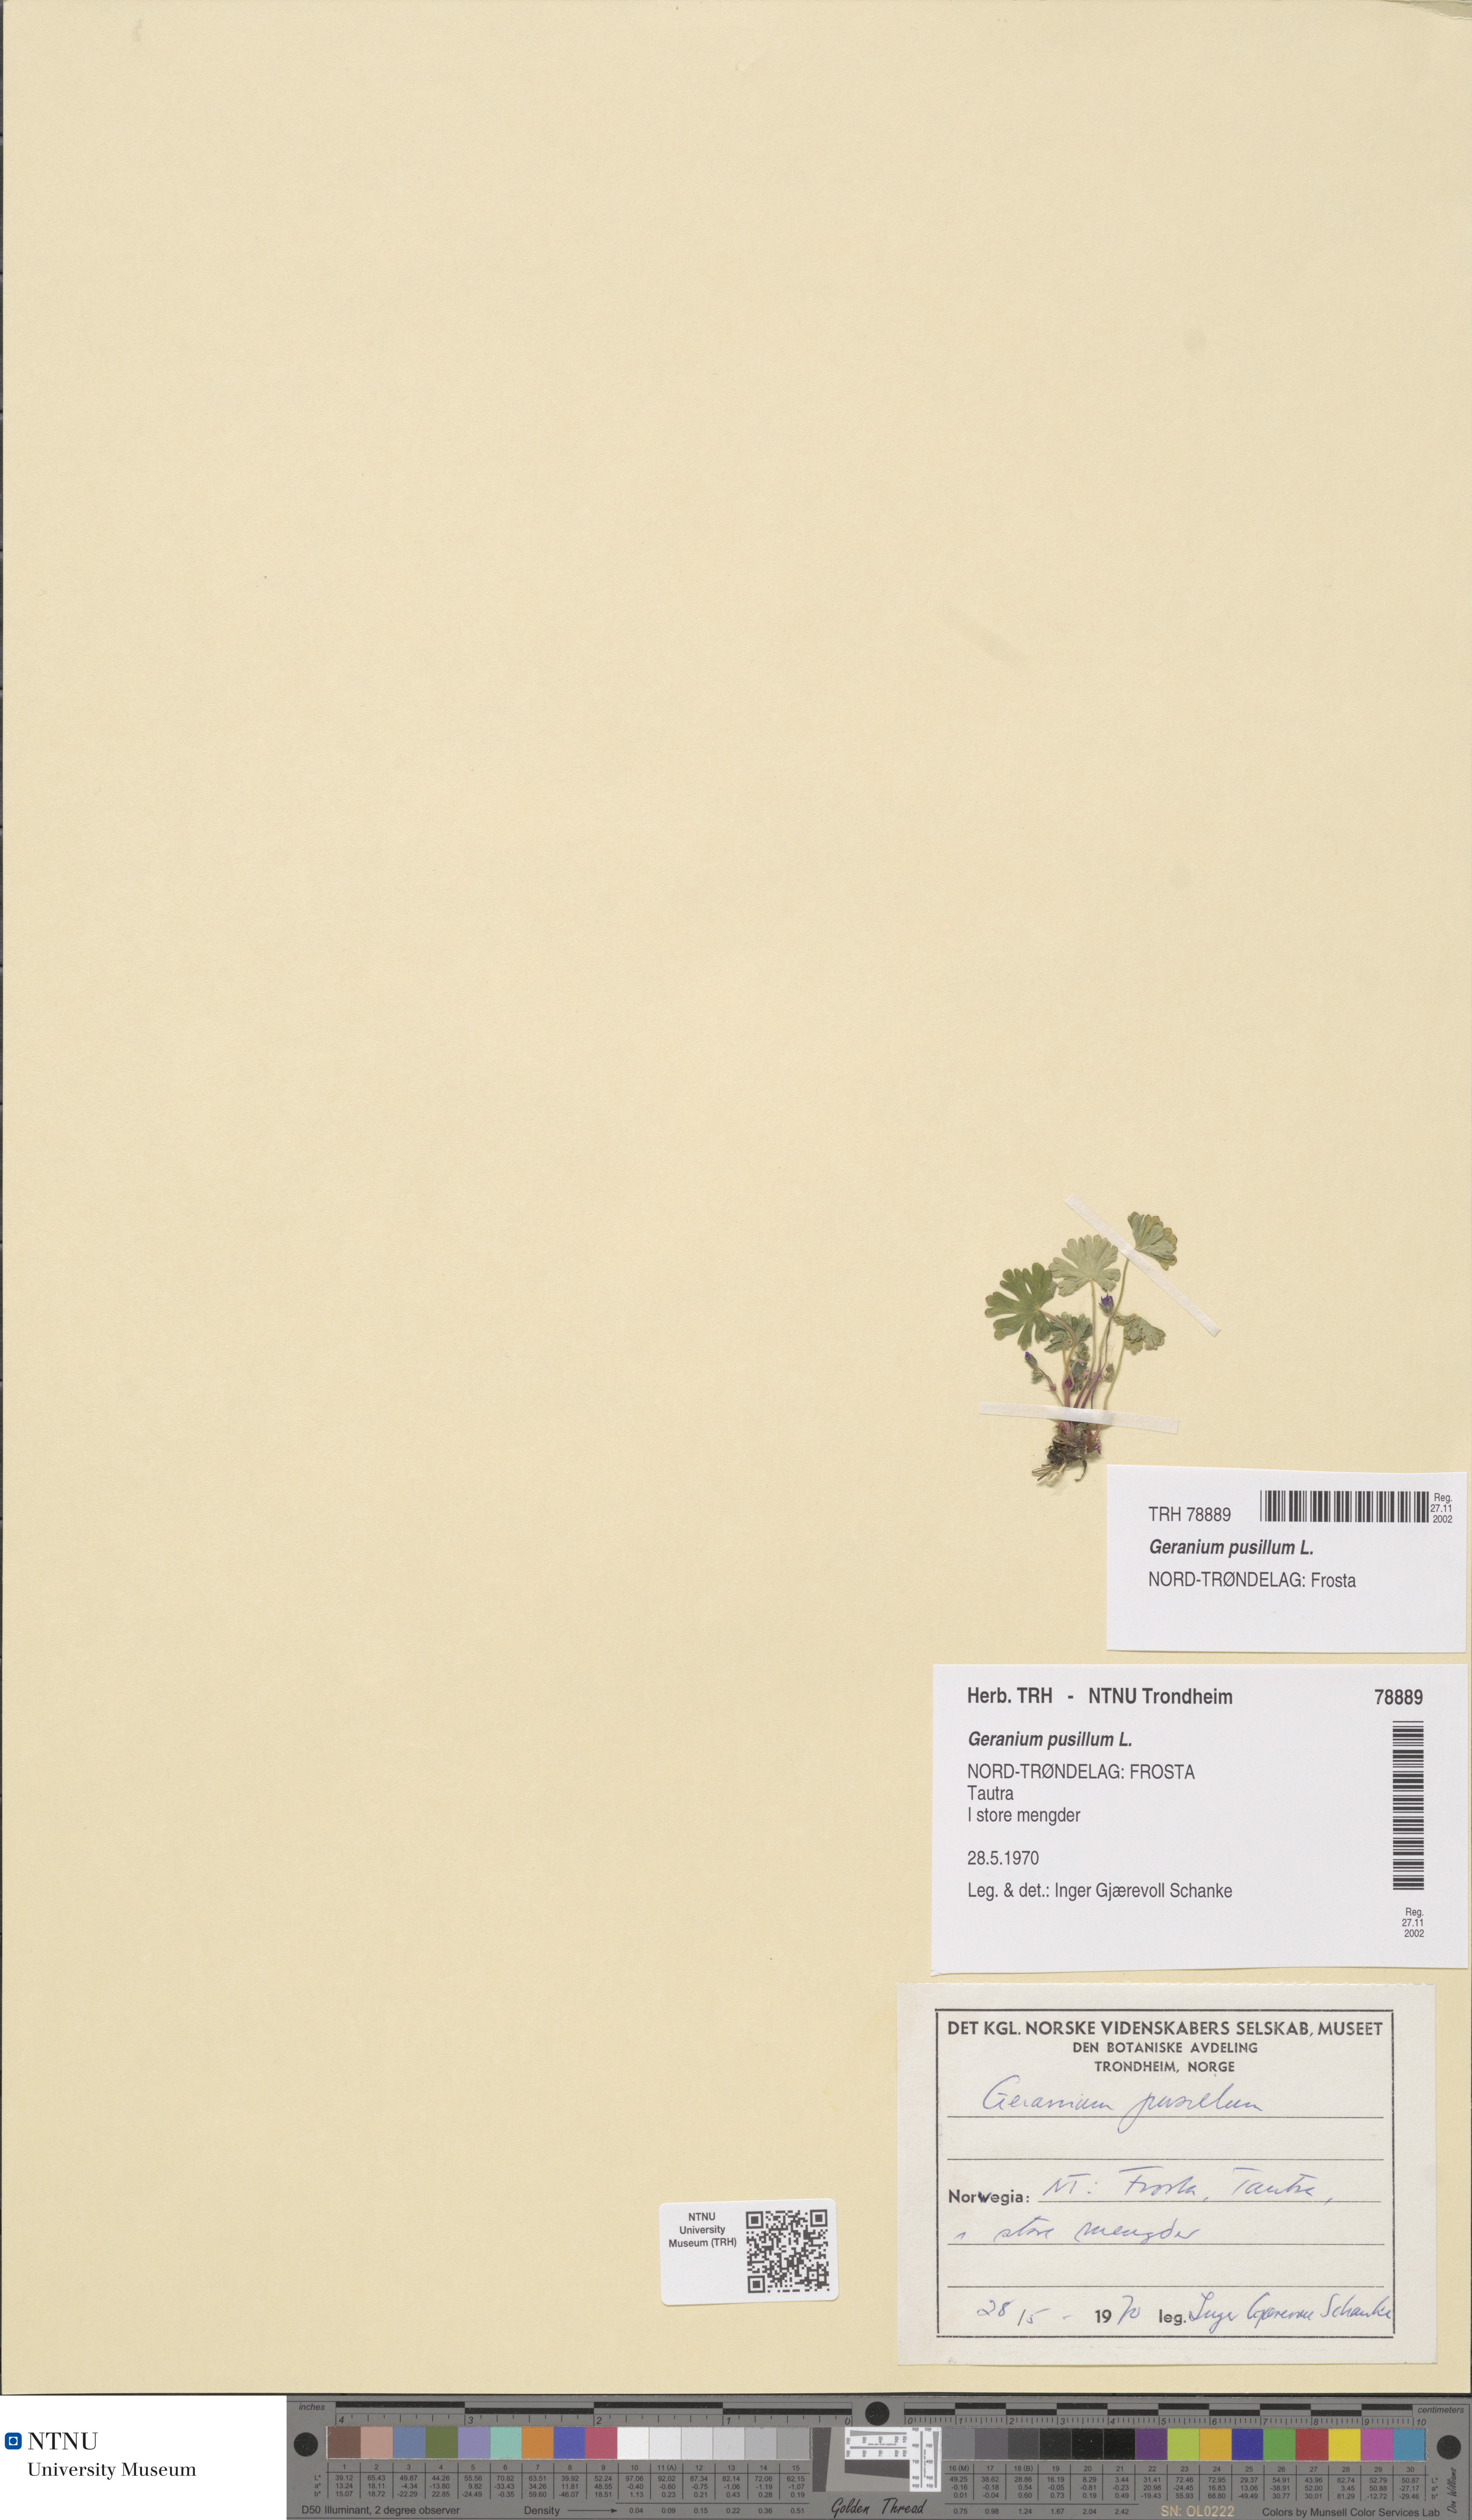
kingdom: Plantae
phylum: Tracheophyta
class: Magnoliopsida
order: Geraniales
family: Geraniaceae
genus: Geranium
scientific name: Geranium pusillum
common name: Small geranium
